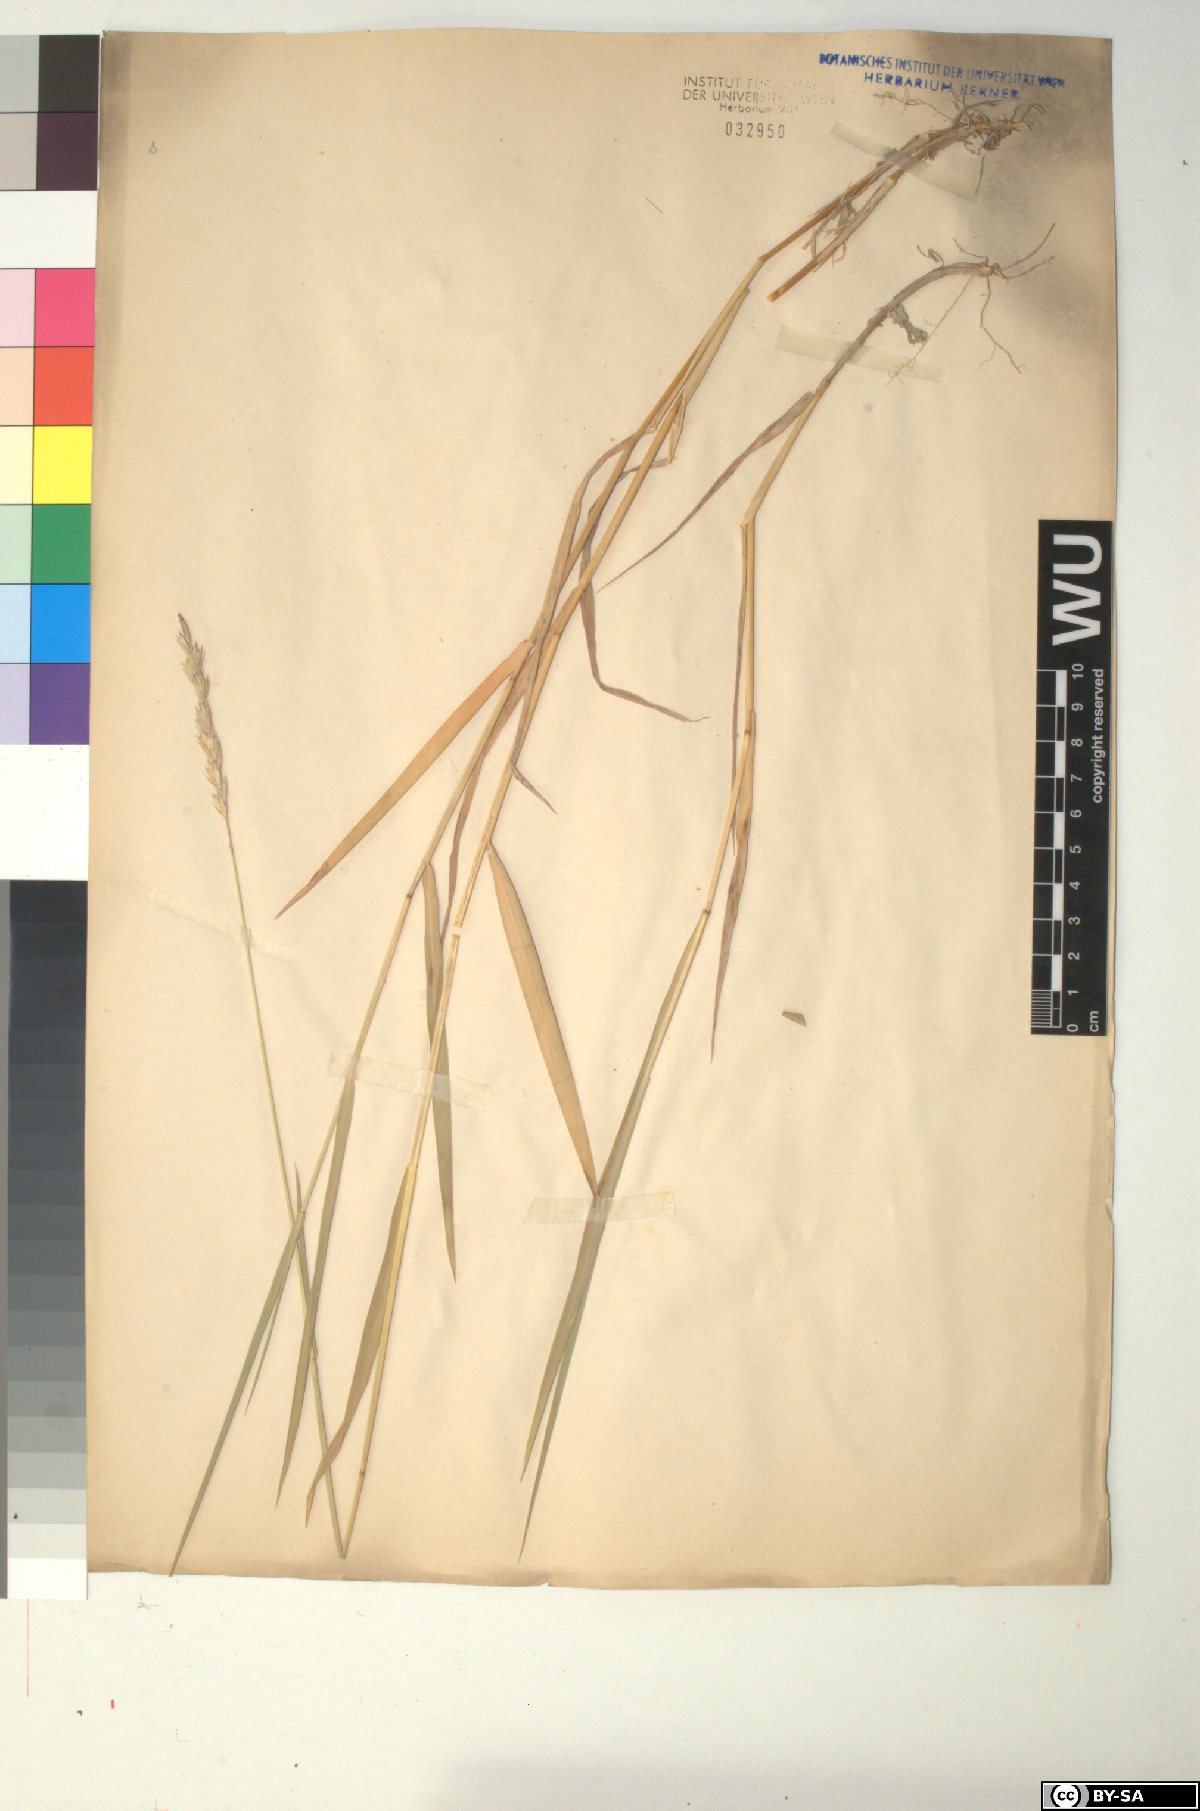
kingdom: Plantae
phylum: Tracheophyta
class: Liliopsida
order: Poales
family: Poaceae
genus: Elymus
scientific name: Elymus repens
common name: Quackgrass
